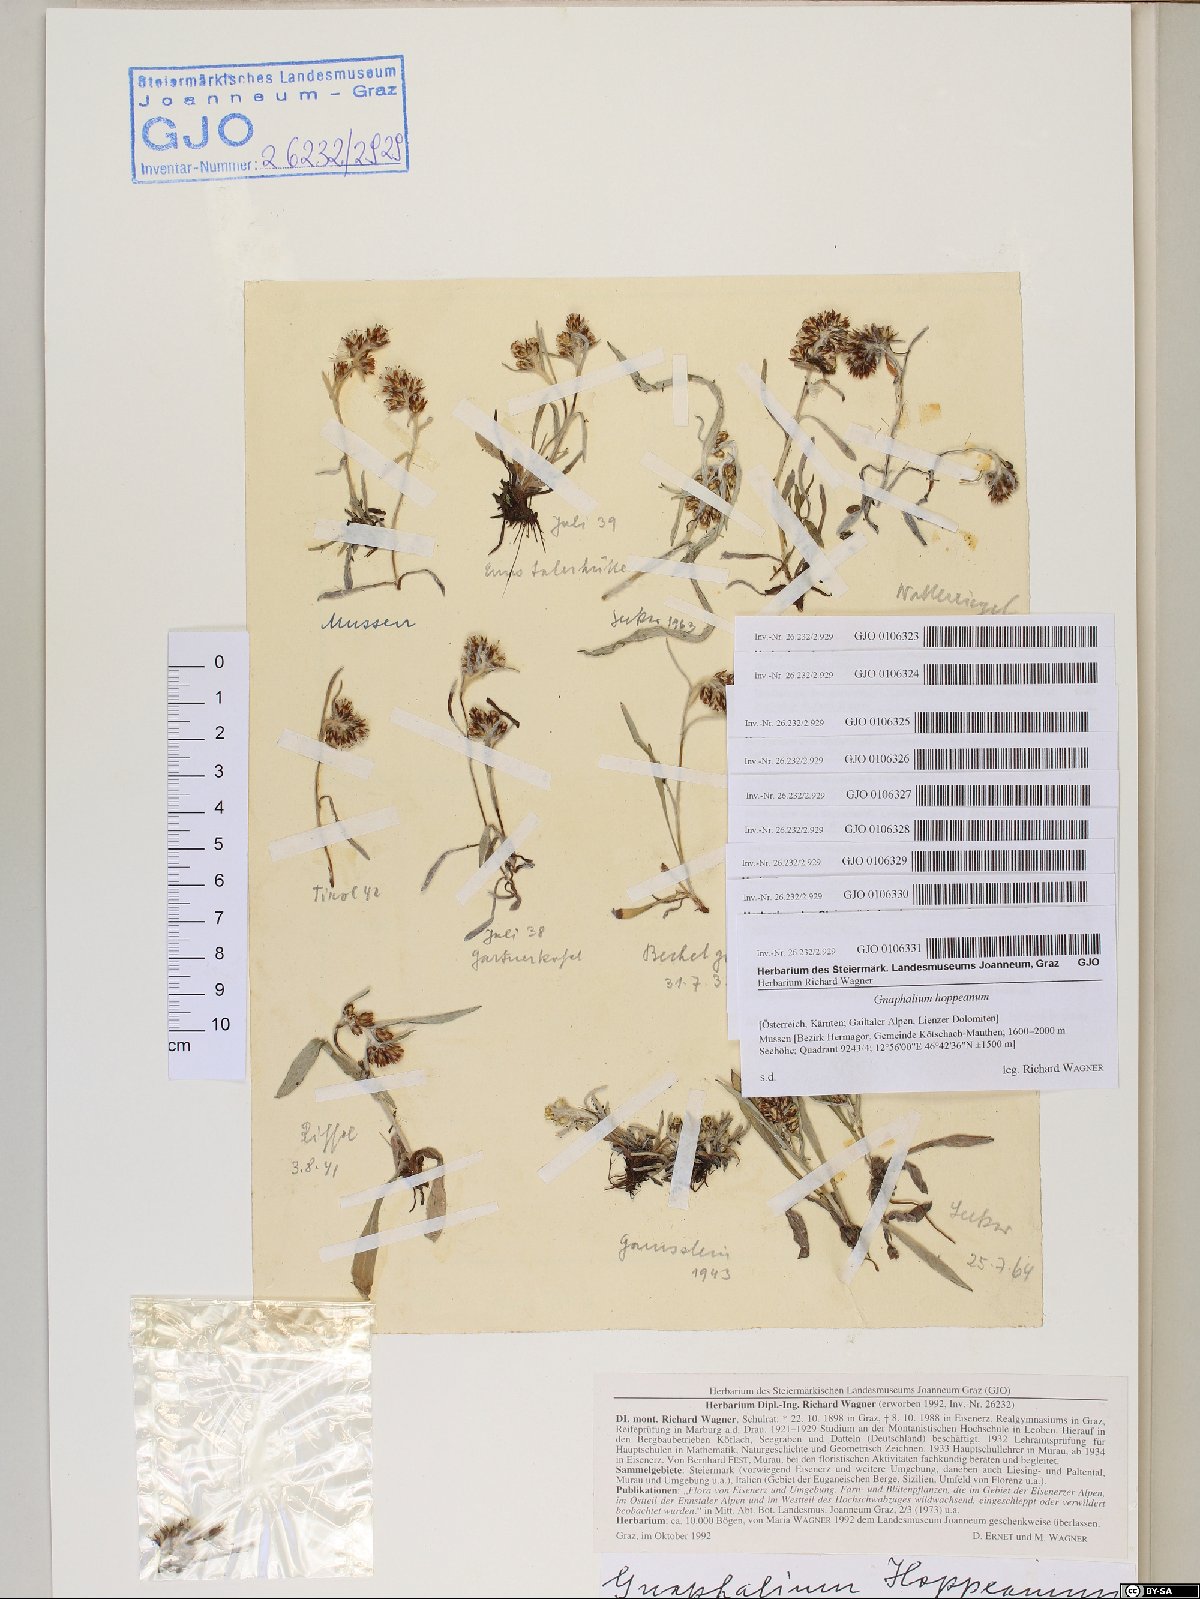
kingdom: Plantae
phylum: Tracheophyta
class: Magnoliopsida
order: Asterales
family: Asteraceae
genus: Omalotheca
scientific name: Omalotheca hoppeana
